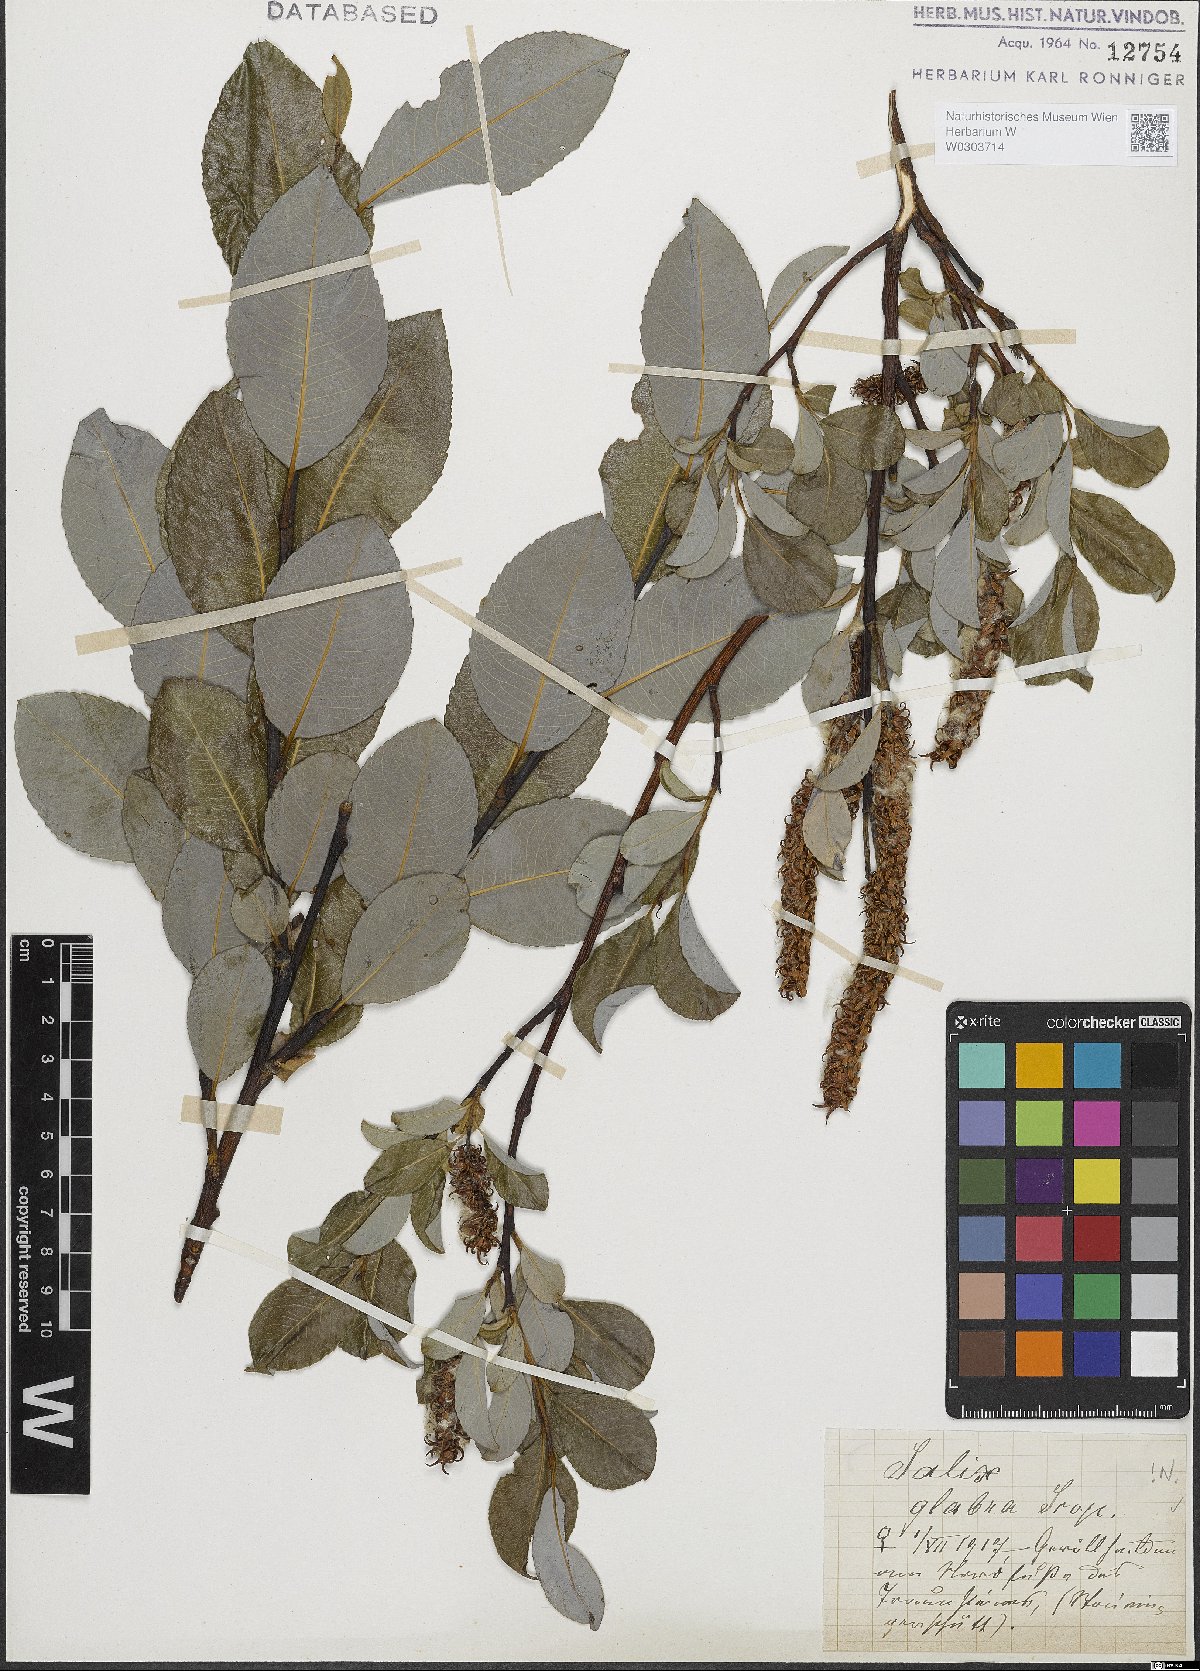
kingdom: Plantae
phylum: Tracheophyta
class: Magnoliopsida
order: Malpighiales
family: Salicaceae
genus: Salix
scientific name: Salix glabra
